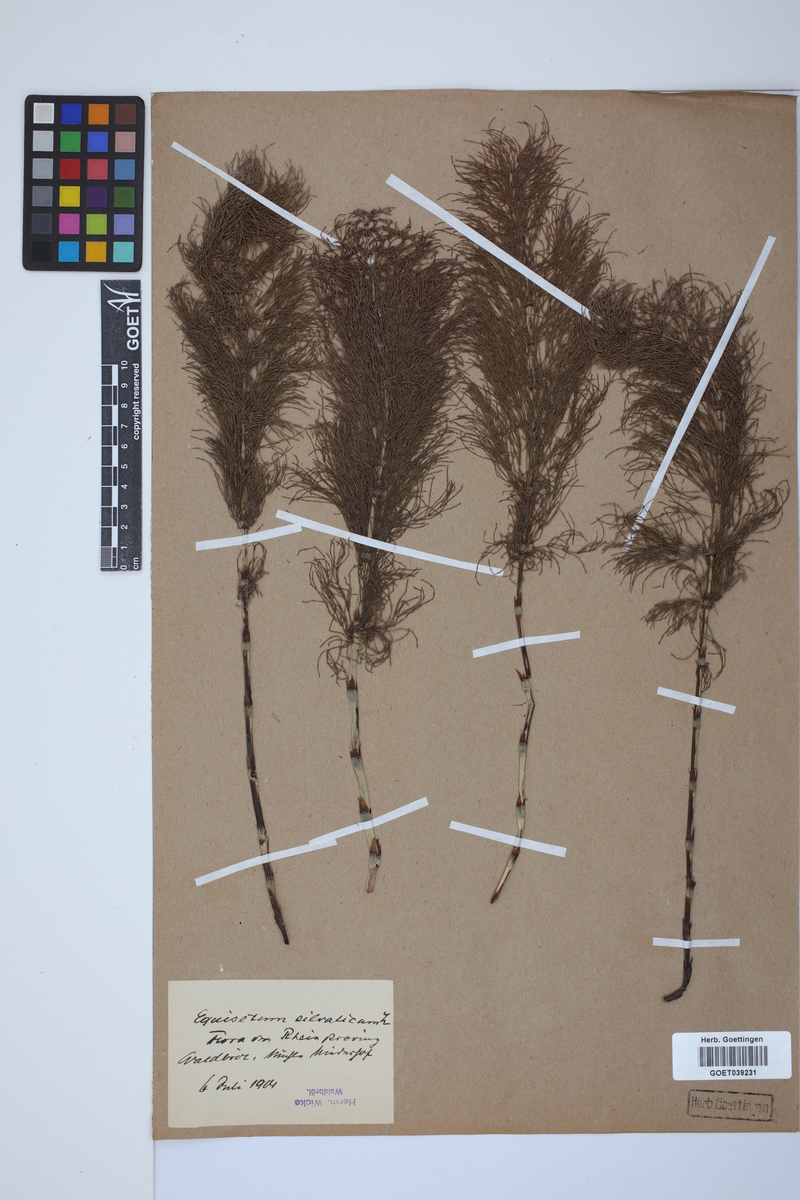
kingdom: Plantae
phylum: Tracheophyta
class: Polypodiopsida
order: Equisetales
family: Equisetaceae
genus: Equisetum
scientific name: Equisetum sylvaticum
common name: Wood horsetail
